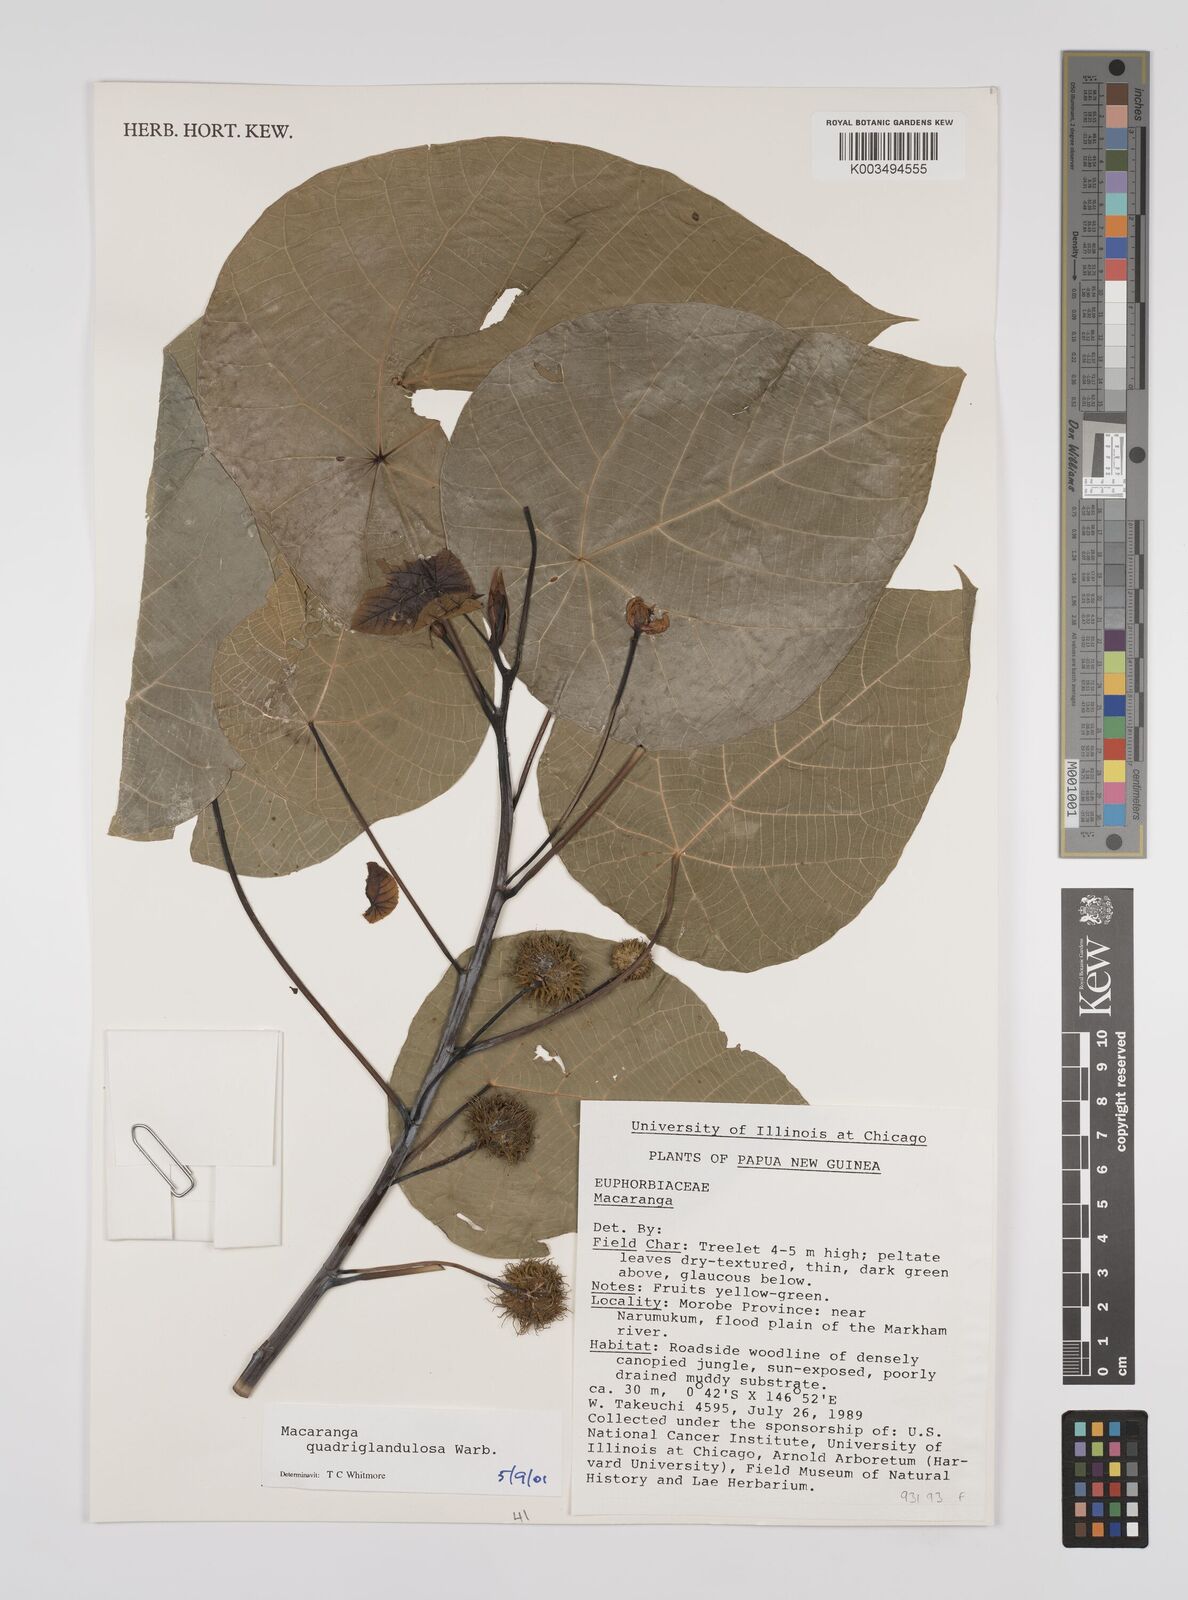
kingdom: Plantae
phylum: Tracheophyta
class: Magnoliopsida
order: Malpighiales
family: Euphorbiaceae
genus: Macaranga
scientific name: Macaranga quadriglandulosa
